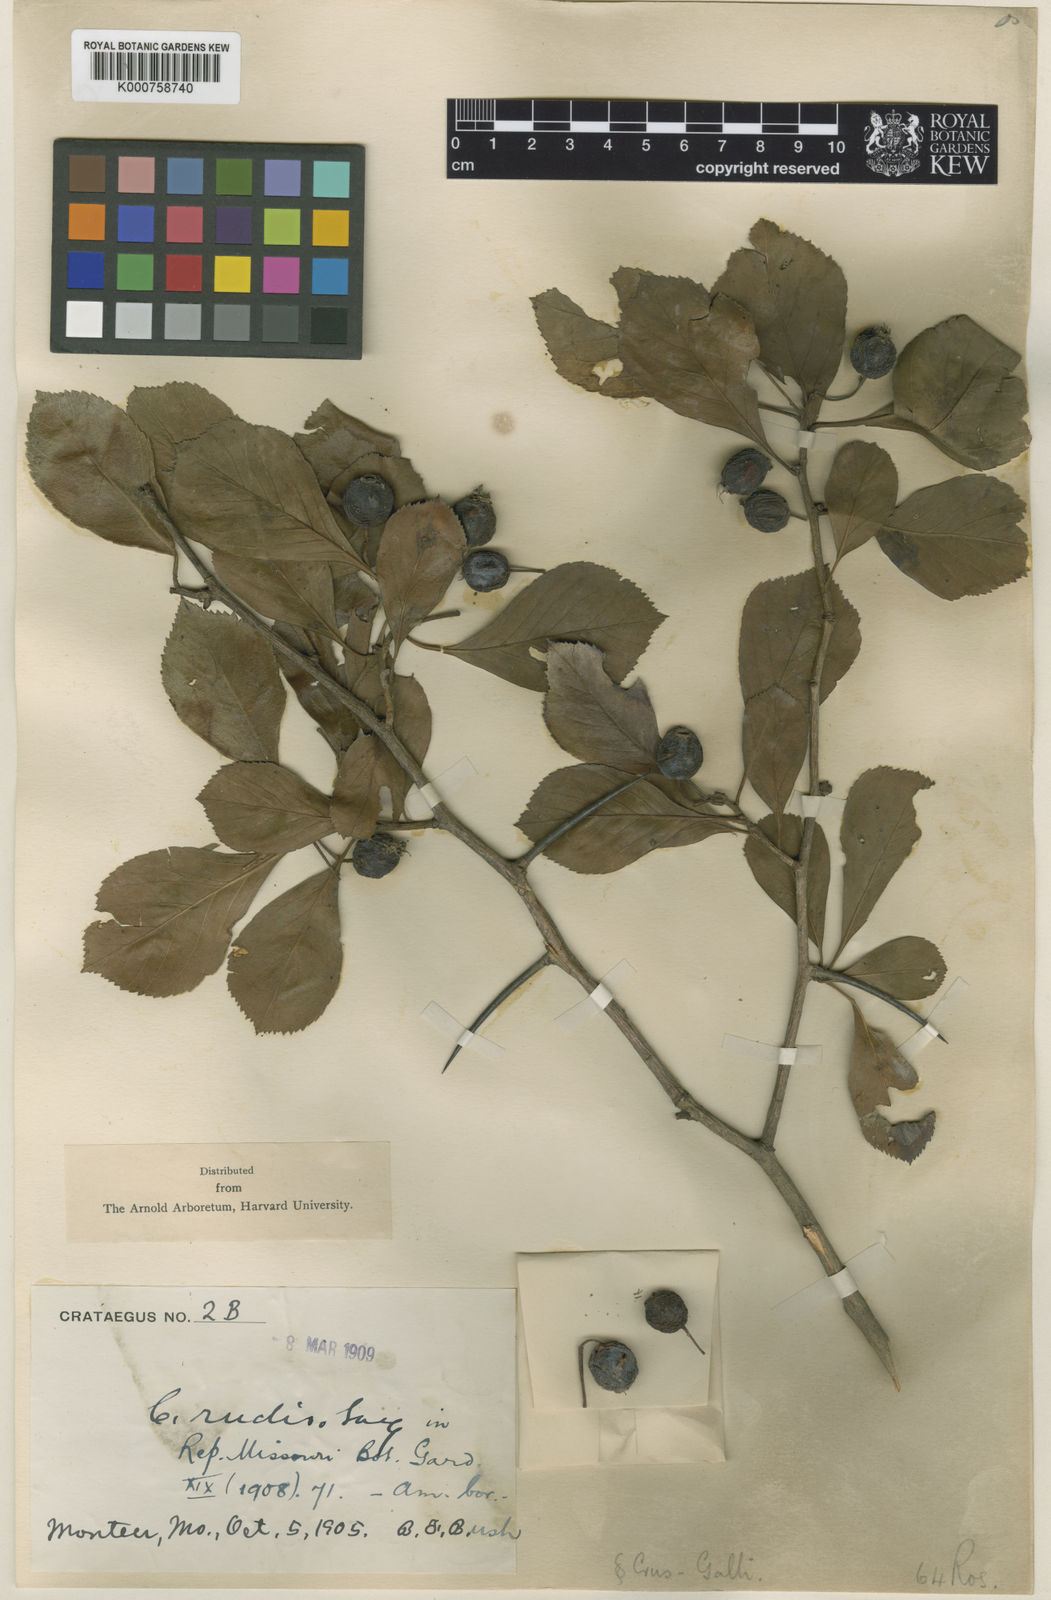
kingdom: Plantae
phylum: Tracheophyta
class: Magnoliopsida
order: Rosales
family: Rosaceae
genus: Crataegus
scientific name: Crataegus rudis
